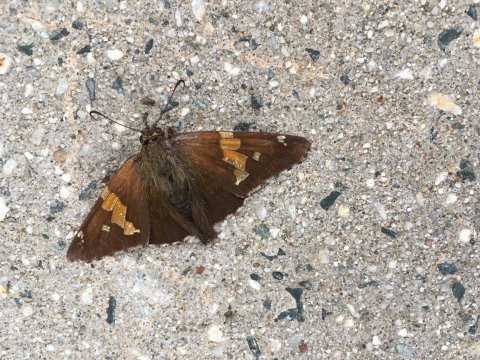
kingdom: Animalia
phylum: Arthropoda
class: Insecta
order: Lepidoptera
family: Hesperiidae
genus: Epargyreus
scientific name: Epargyreus clarus
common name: Silver-spotted Skipper
